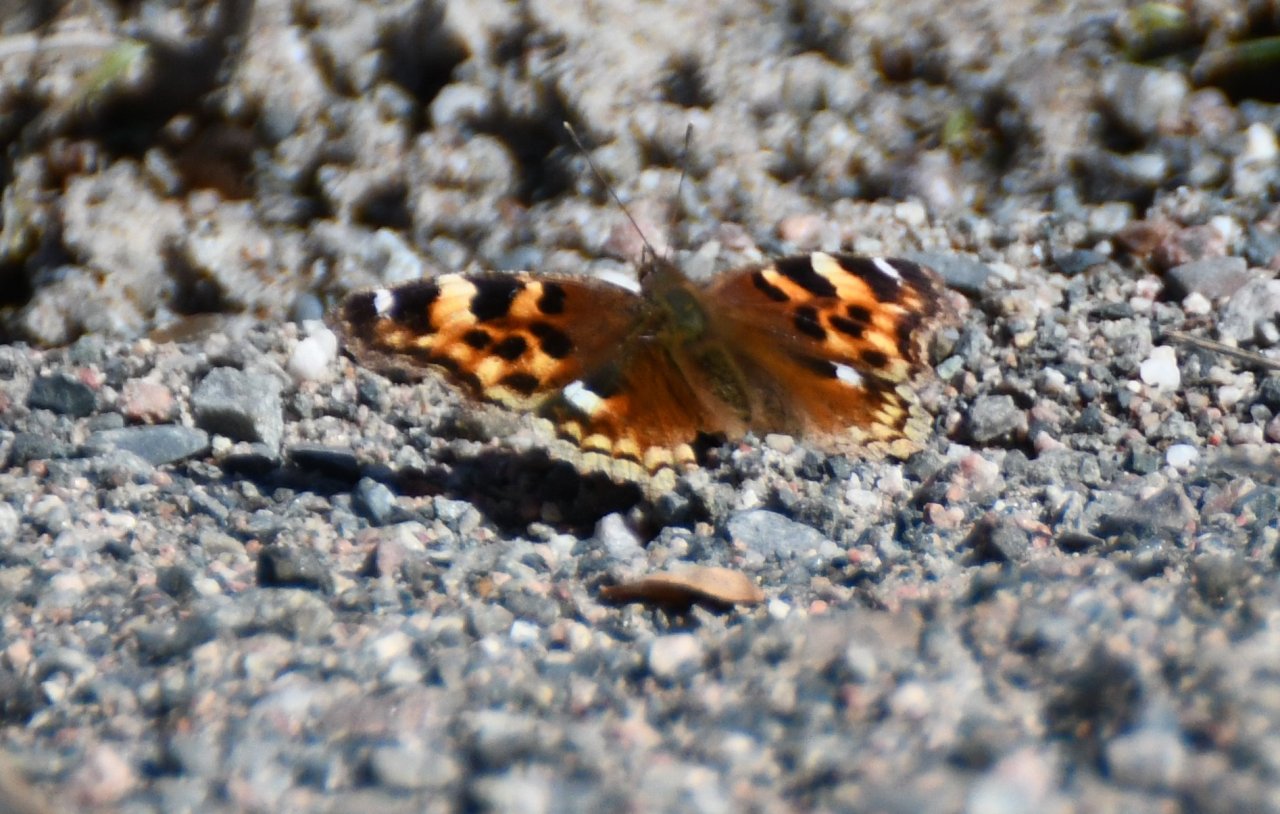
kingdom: Animalia
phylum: Arthropoda
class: Insecta
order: Lepidoptera
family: Nymphalidae
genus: Polygonia
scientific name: Polygonia vaualbum
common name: Compton Tortoiseshell
